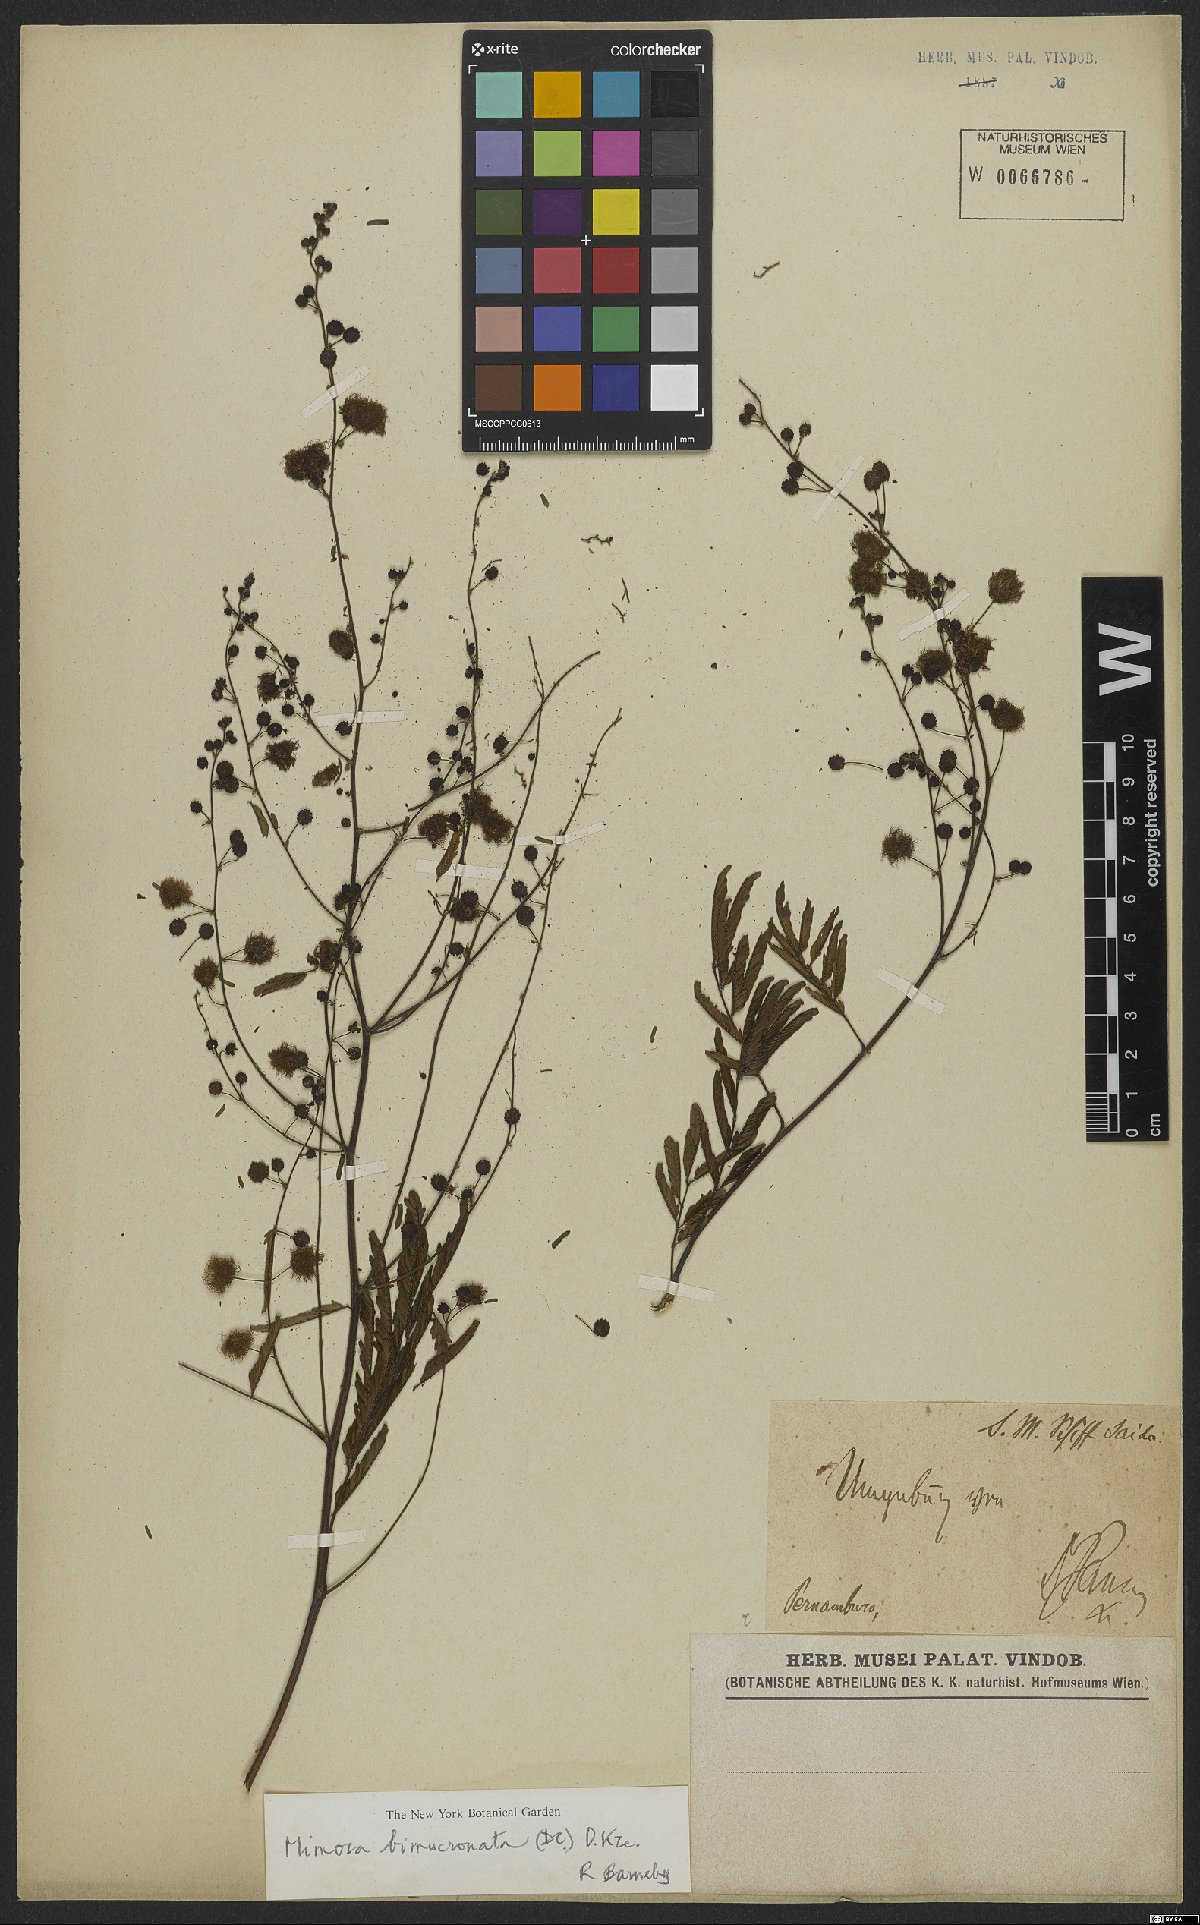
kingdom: Plantae
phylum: Tracheophyta
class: Magnoliopsida
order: Fabales
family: Fabaceae
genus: Mimosa
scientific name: Mimosa bimucronata
